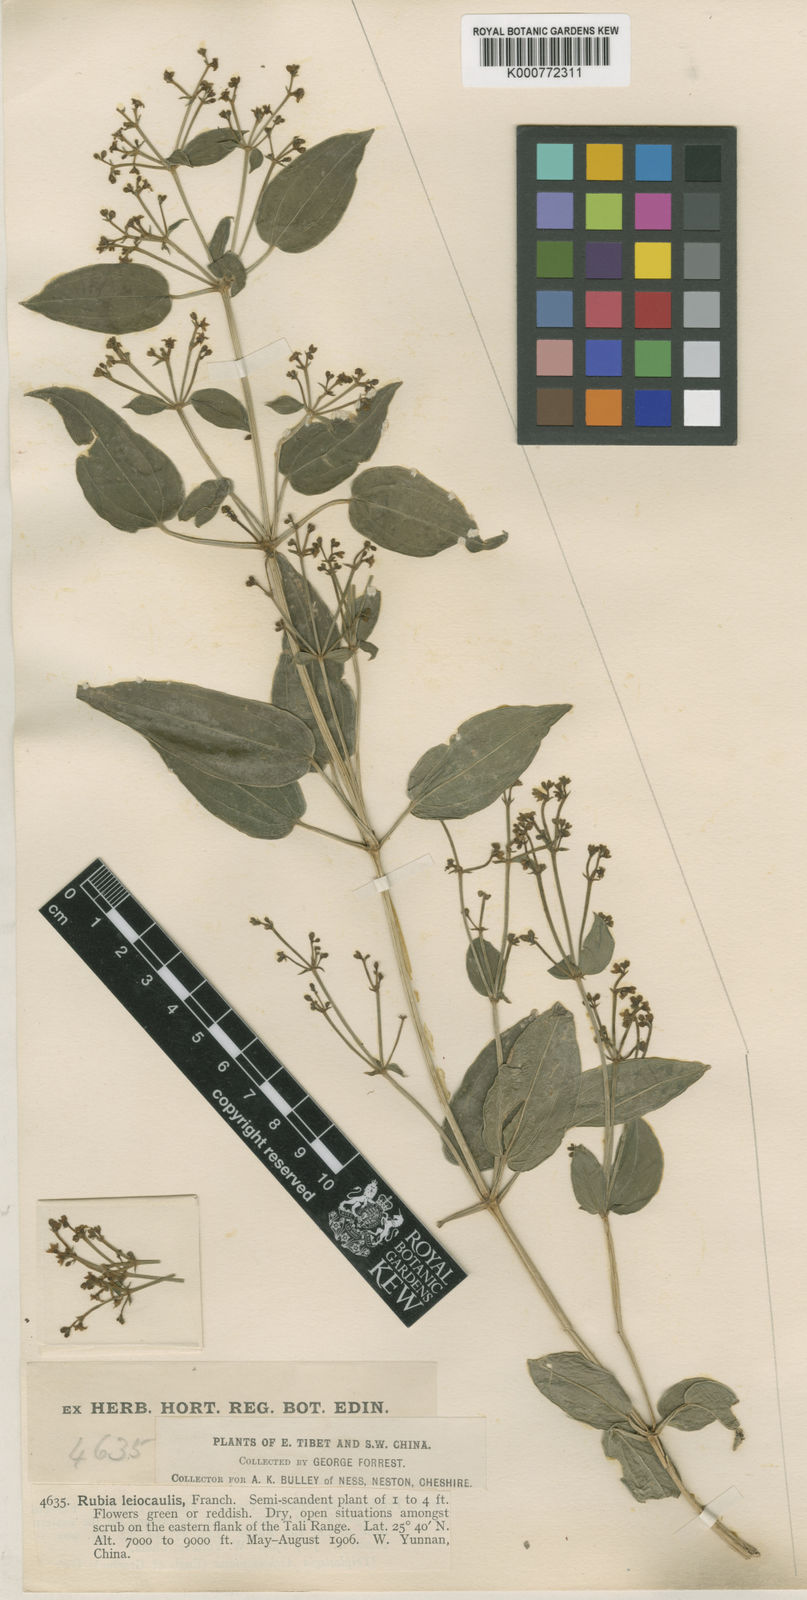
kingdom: Plantae
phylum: Tracheophyta
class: Magnoliopsida
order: Gentianales
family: Rubiaceae
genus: Rubia
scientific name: Rubia schumanniana
